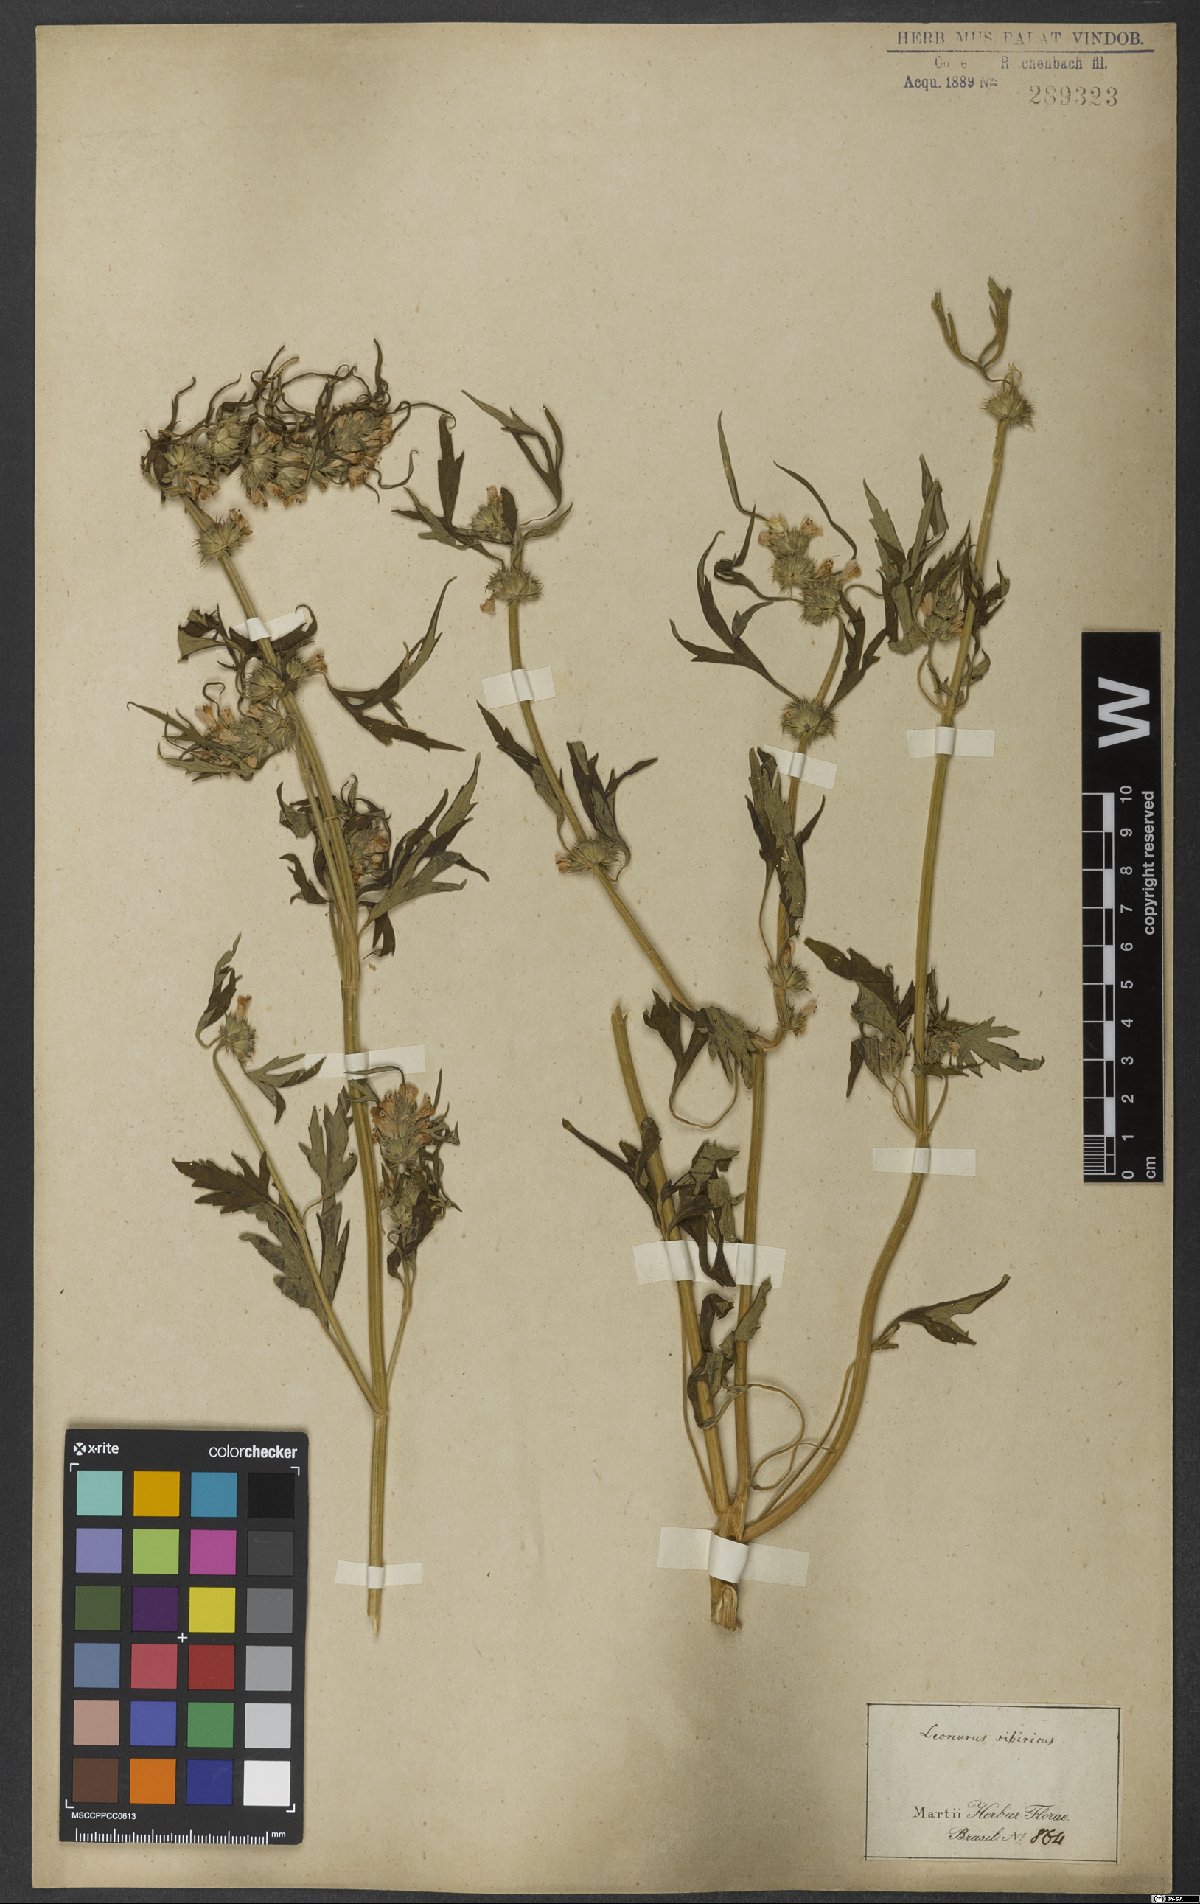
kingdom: Plantae
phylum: Tracheophyta
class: Magnoliopsida
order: Lamiales
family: Lamiaceae
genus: Leonurus
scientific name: Leonurus sibiricus
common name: Honeyweed
